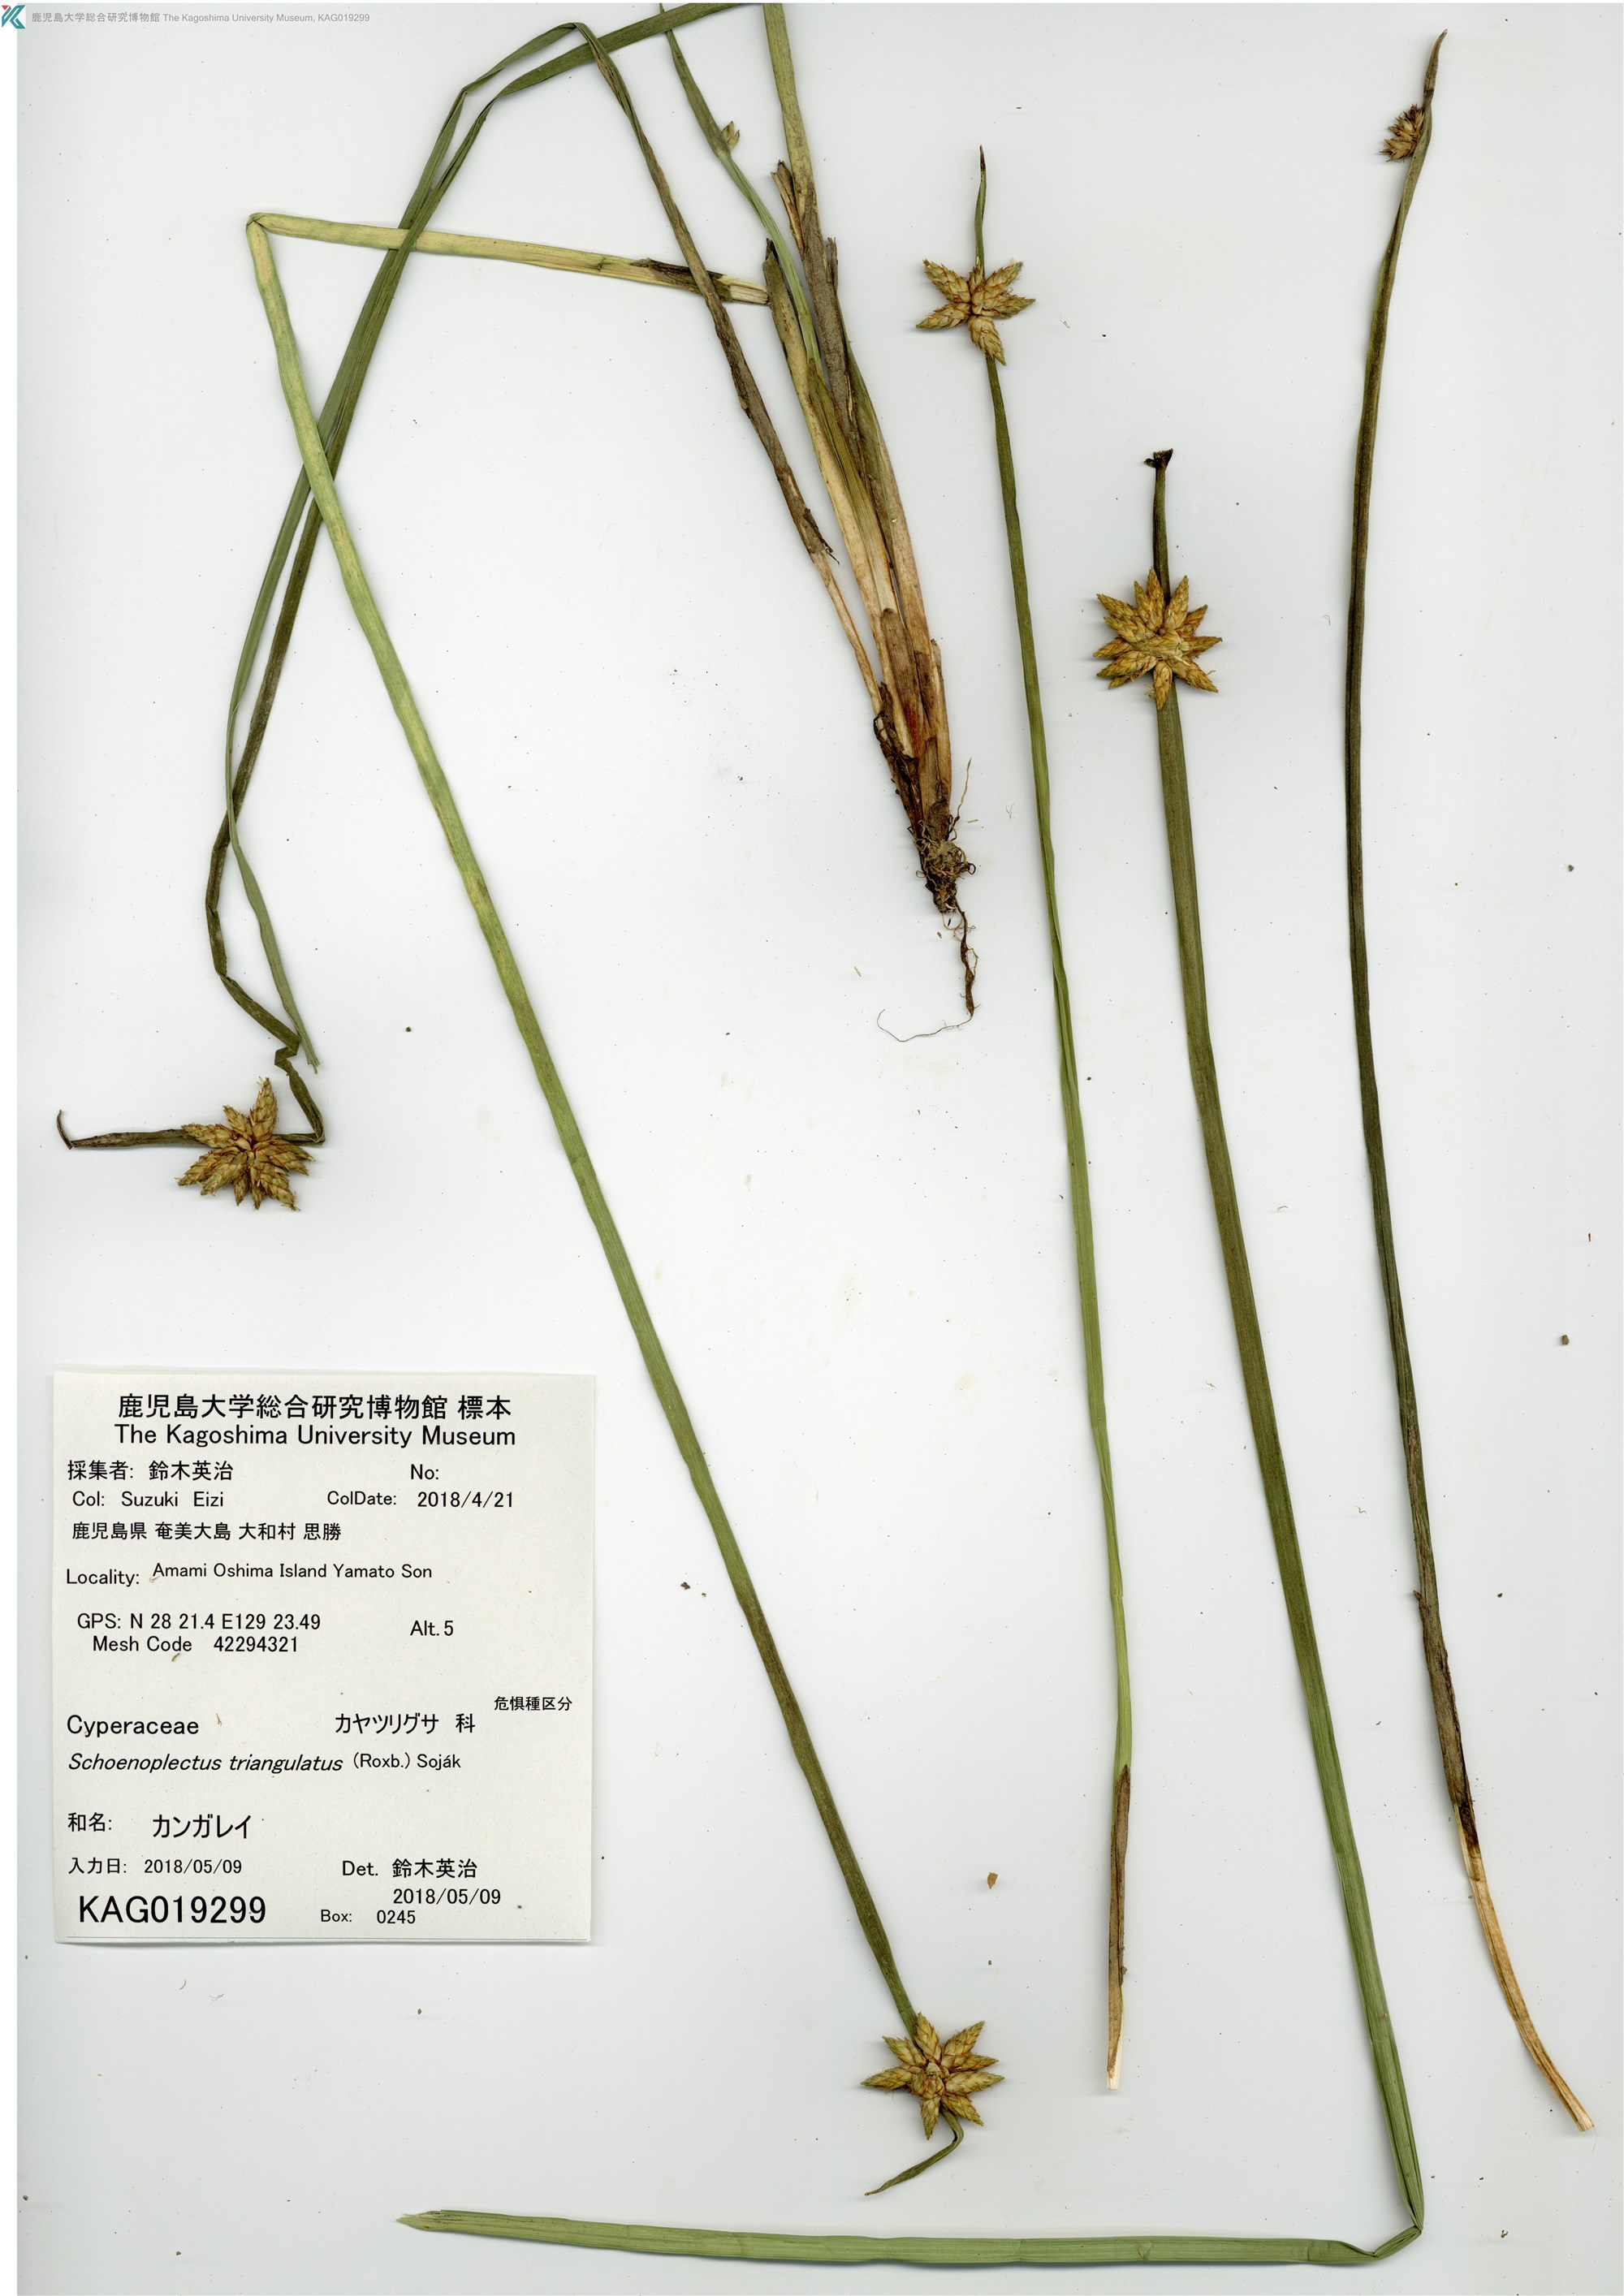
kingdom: Plantae
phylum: Tracheophyta
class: Liliopsida
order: Poales
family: Cyperaceae
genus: Schoenoplectiella
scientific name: Schoenoplectiella triangulata
